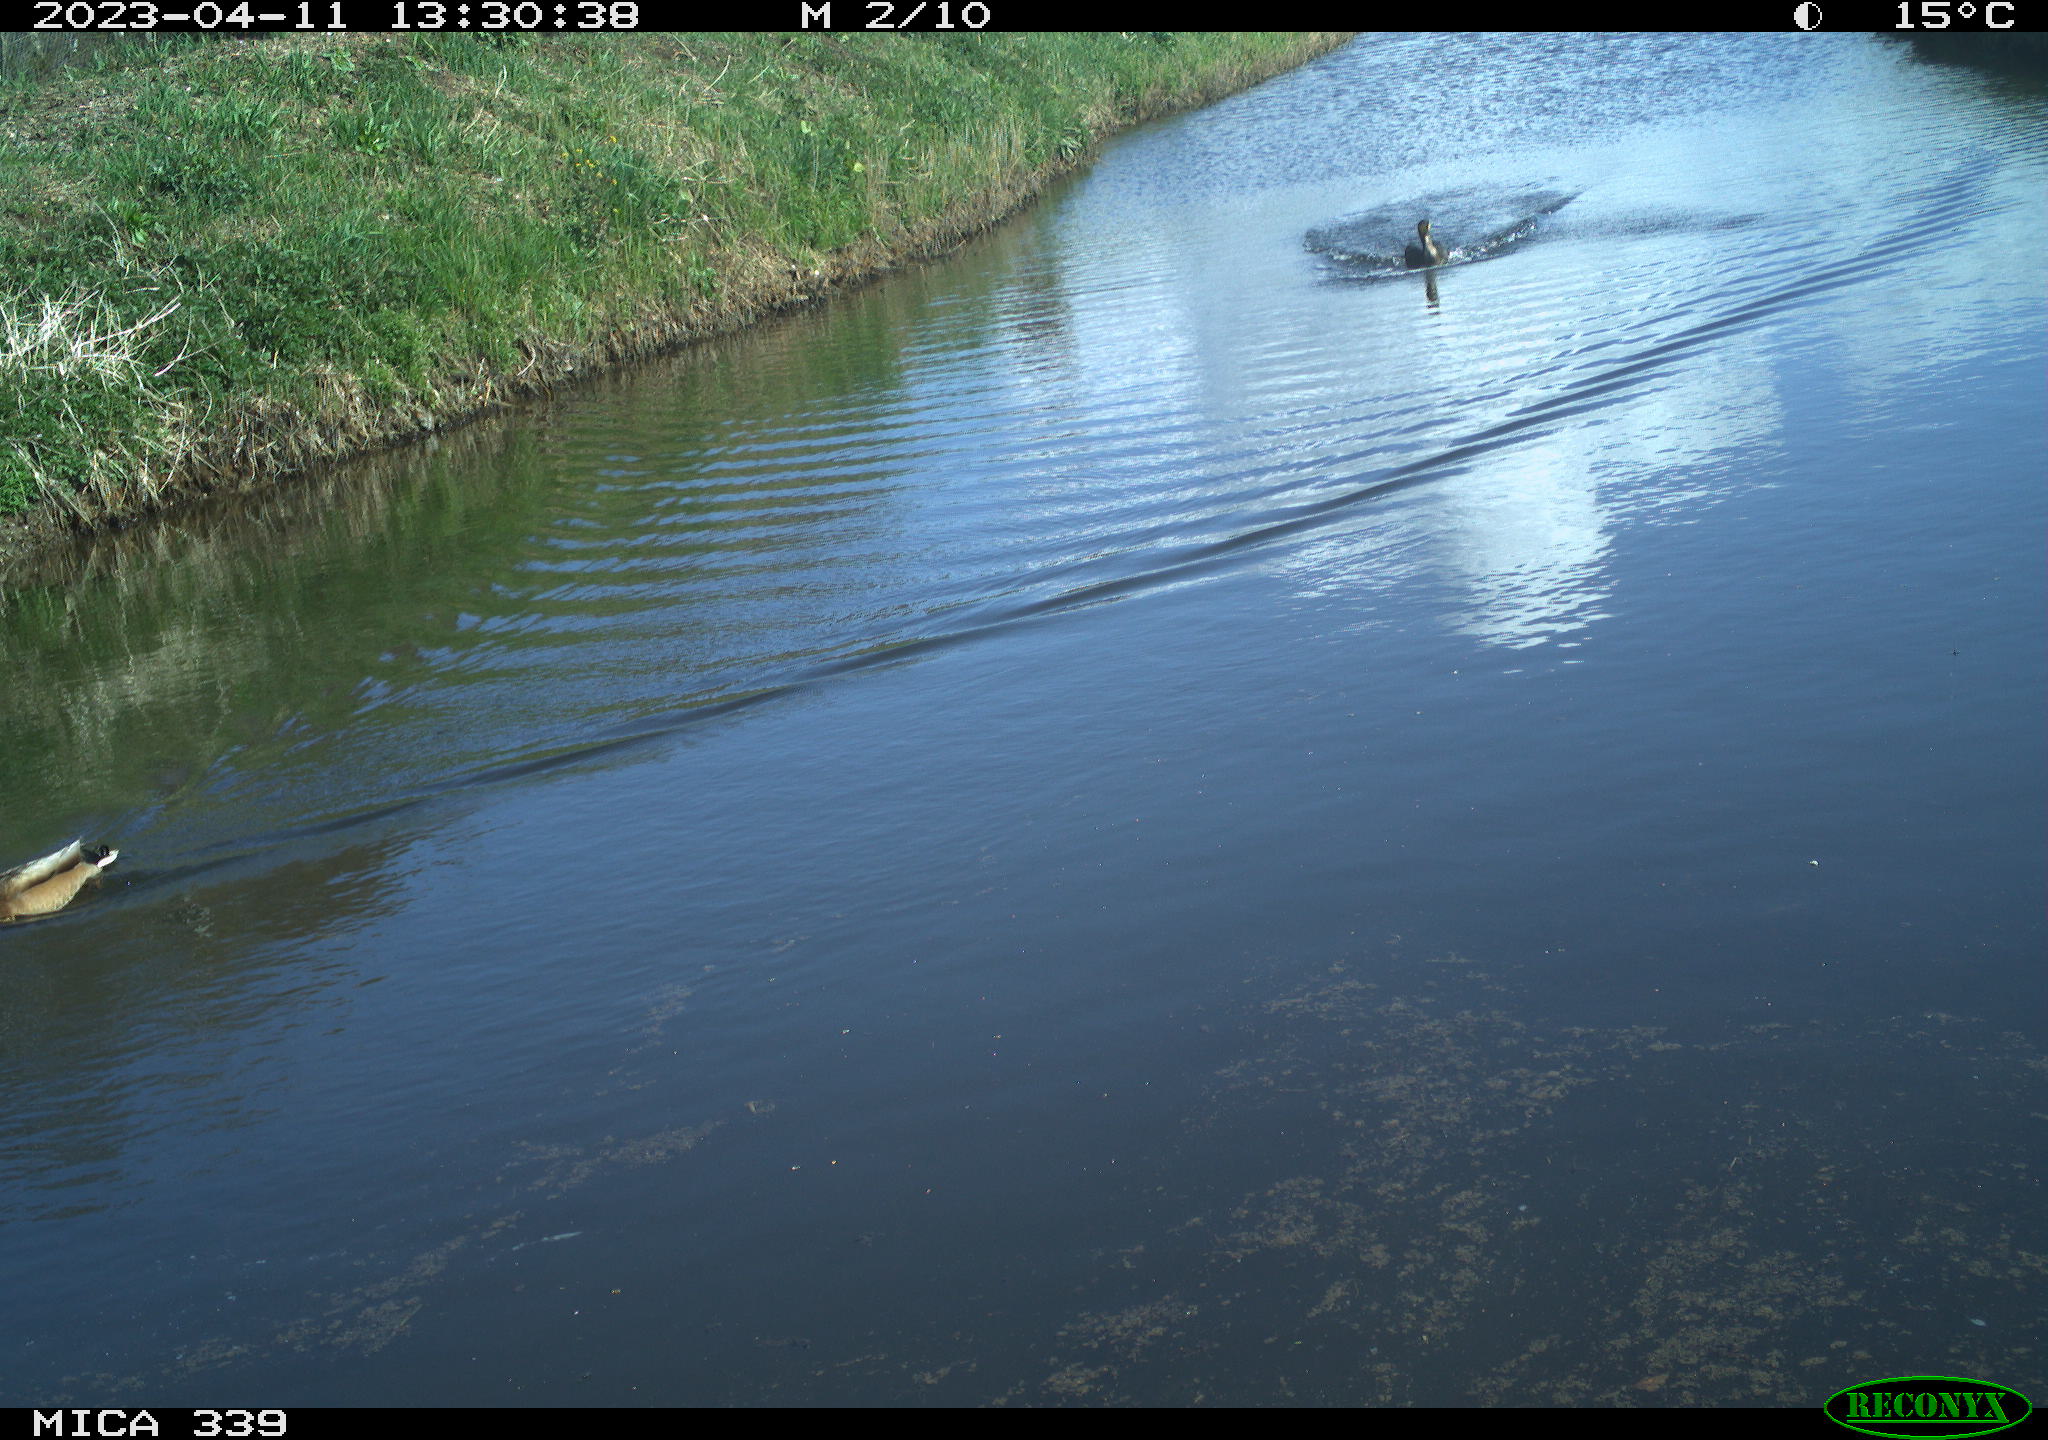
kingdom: Animalia
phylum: Chordata
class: Aves
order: Suliformes
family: Phalacrocoracidae
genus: Phalacrocorax
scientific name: Phalacrocorax carbo
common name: Great cormorant
